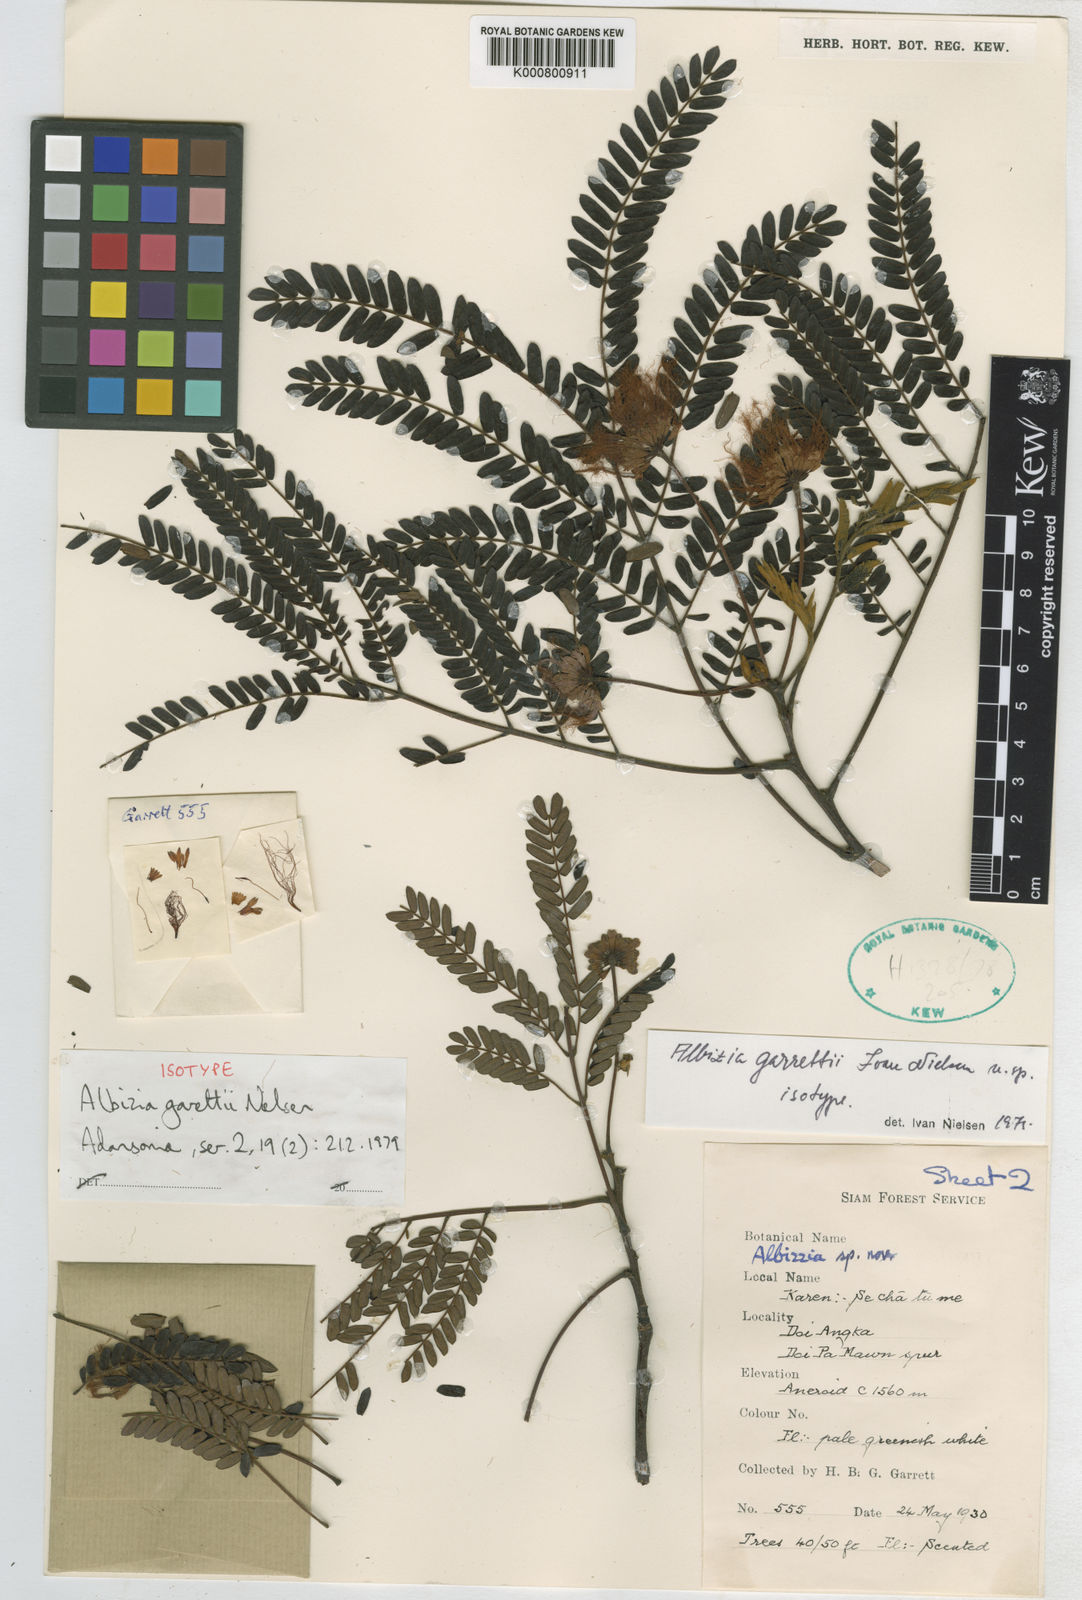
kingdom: Plantae
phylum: Tracheophyta
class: Magnoliopsida
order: Fabales
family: Fabaceae
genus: Albizia
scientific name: Albizia garrettii
